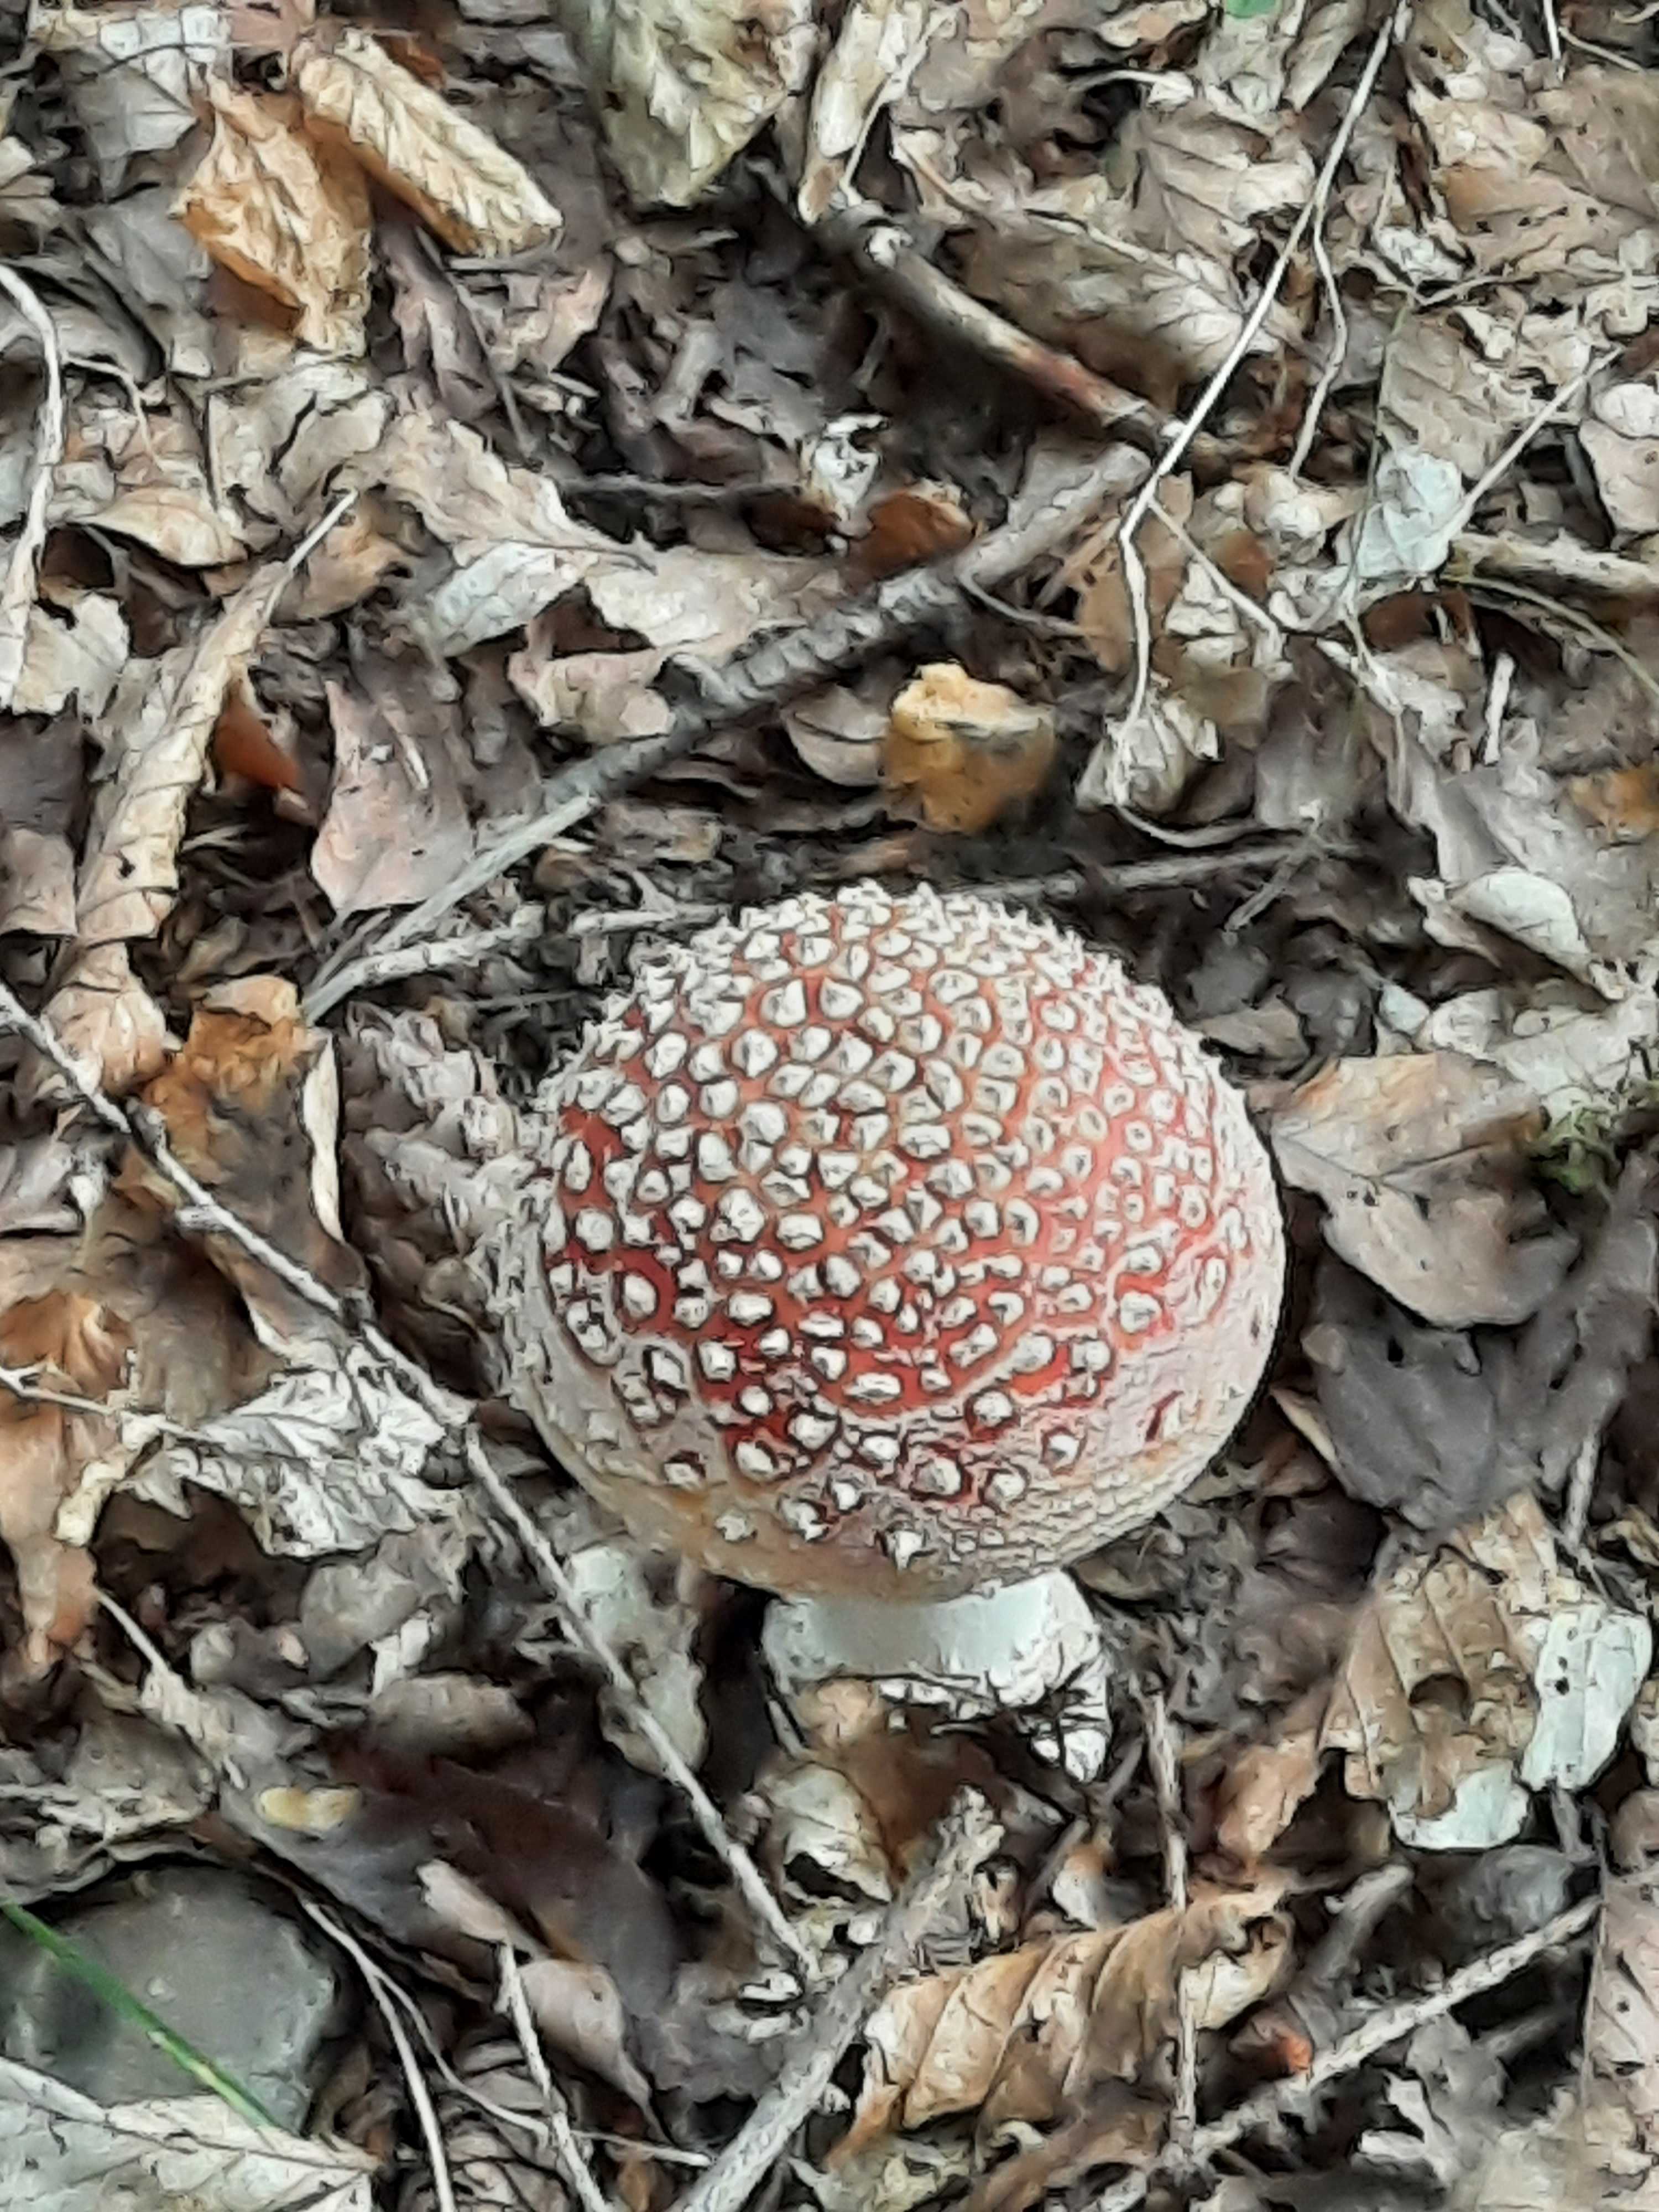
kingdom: Fungi
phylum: Basidiomycota
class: Agaricomycetes
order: Agaricales
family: Amanitaceae
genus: Amanita
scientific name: Amanita muscaria
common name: rød fluesvamp
